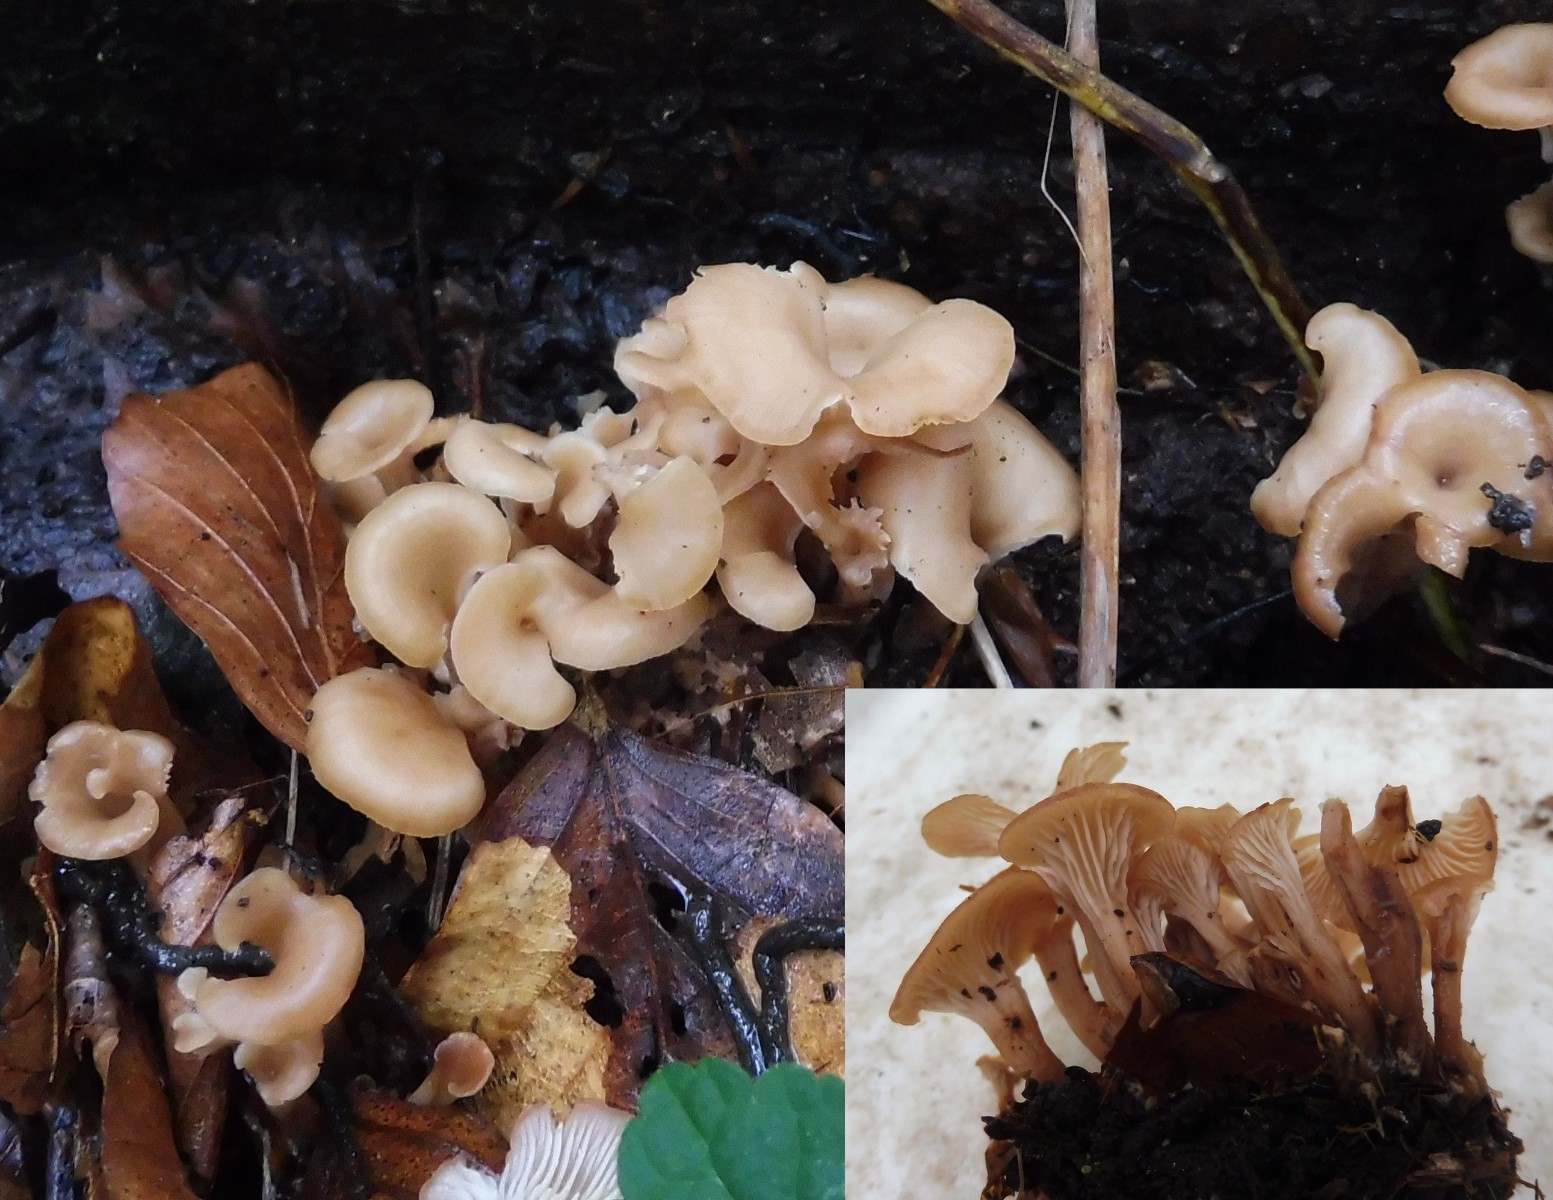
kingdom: Fungi
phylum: Basidiomycota
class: Agaricomycetes
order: Russulales
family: Auriscalpiaceae
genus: Lentinellus
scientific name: Lentinellus cochleatus
